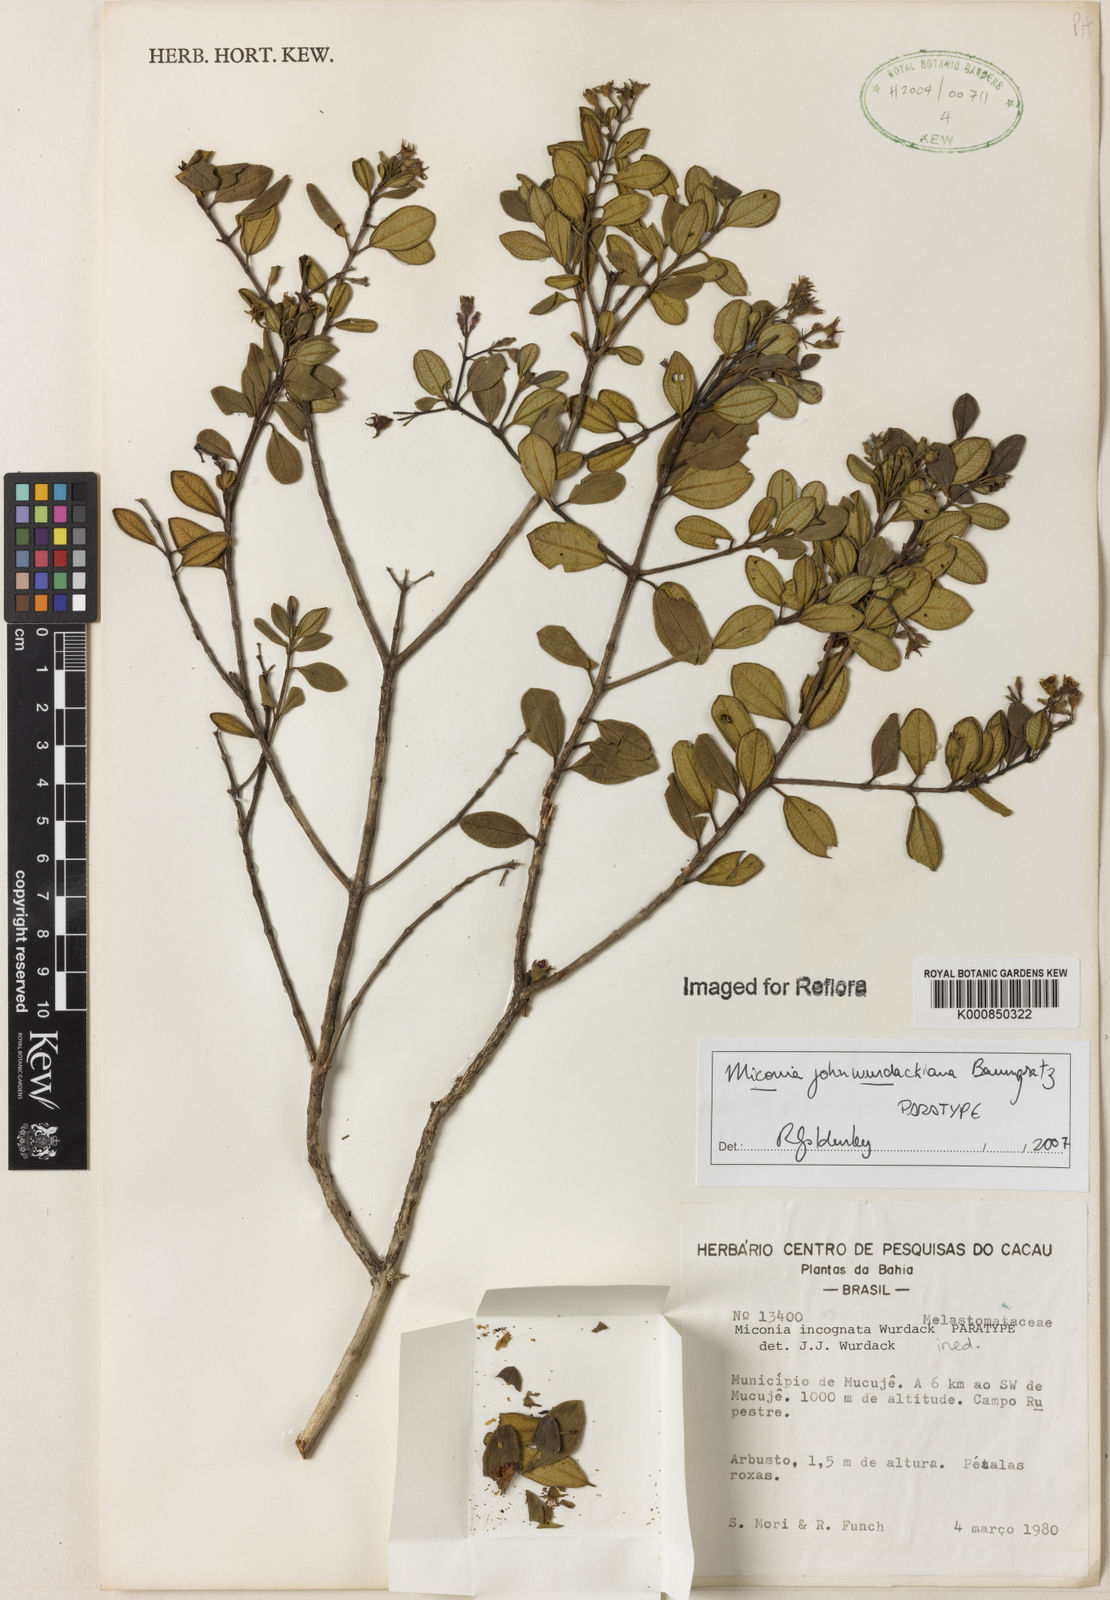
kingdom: Plantae
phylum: Tracheophyta
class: Magnoliopsida
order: Myrtales
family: Melastomataceae
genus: Miconia
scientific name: Miconia
